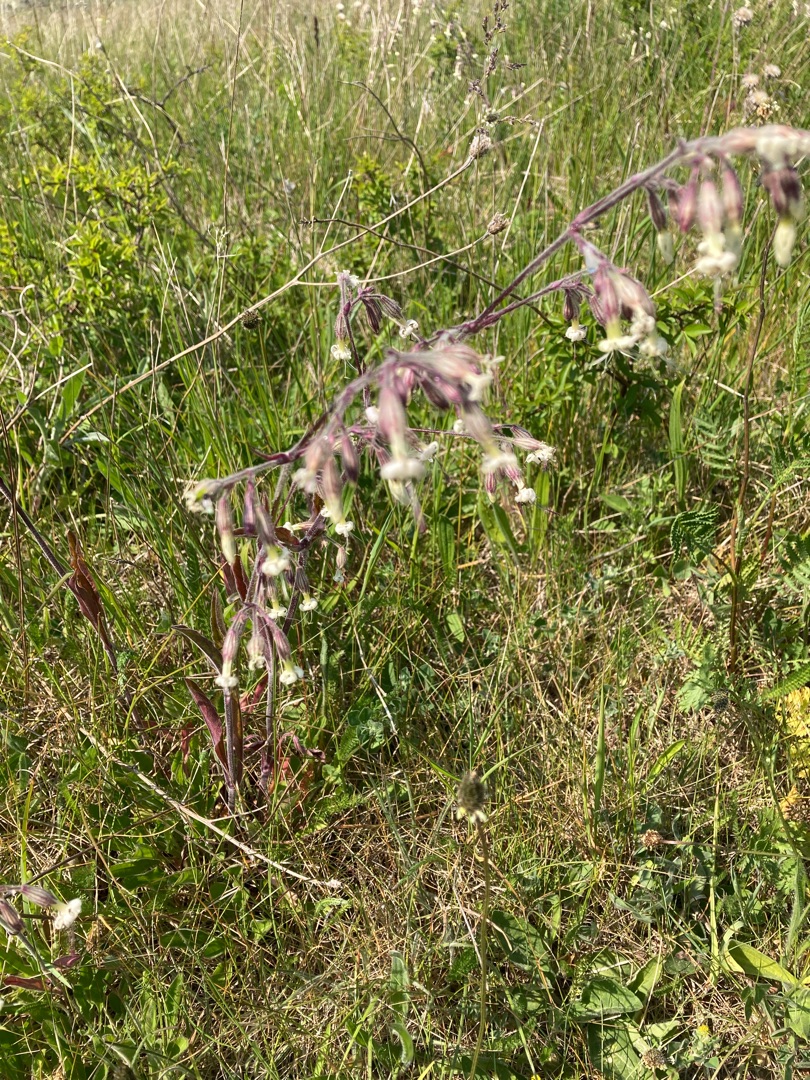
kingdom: Plantae
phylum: Tracheophyta
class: Magnoliopsida
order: Caryophyllales
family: Caryophyllaceae
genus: Silene
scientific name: Silene nutans
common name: Nikkende limurt
